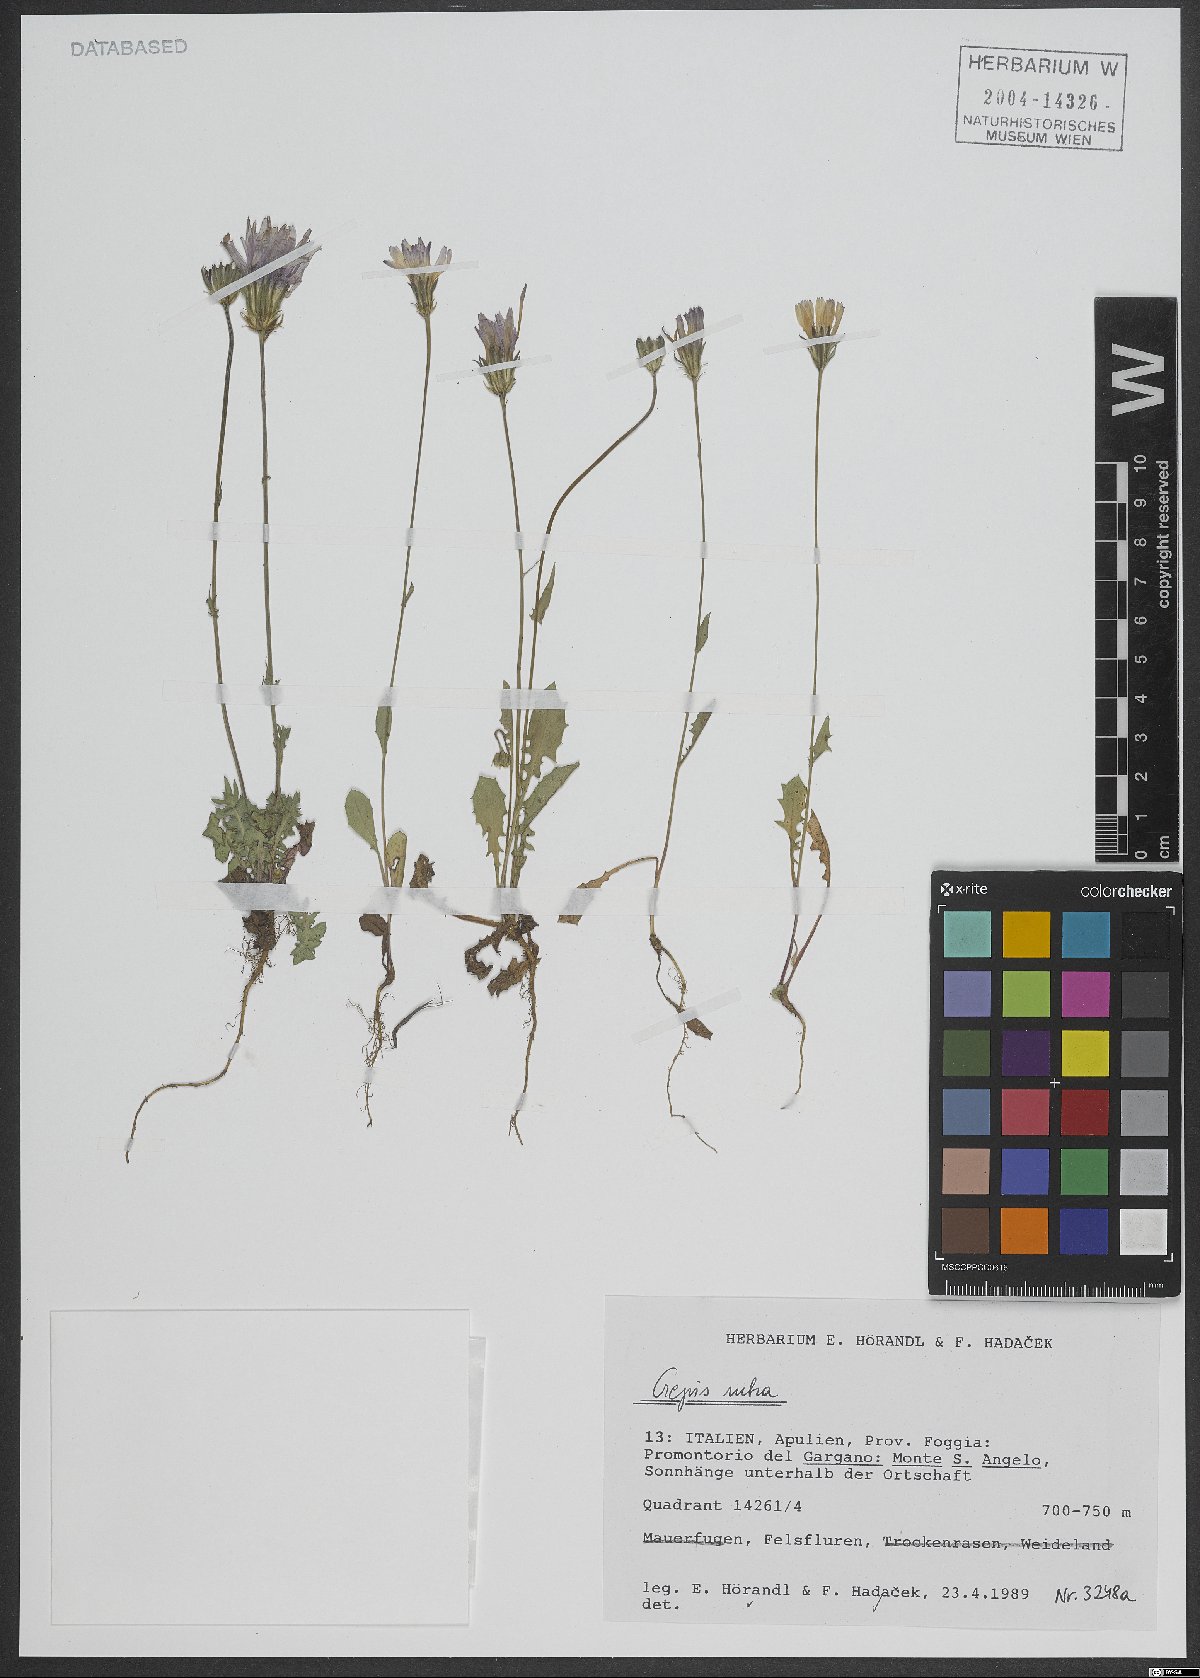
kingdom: Plantae
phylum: Tracheophyta
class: Magnoliopsida
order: Asterales
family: Asteraceae
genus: Crepis
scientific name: Crepis rubra
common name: Pink hawk's-beard
